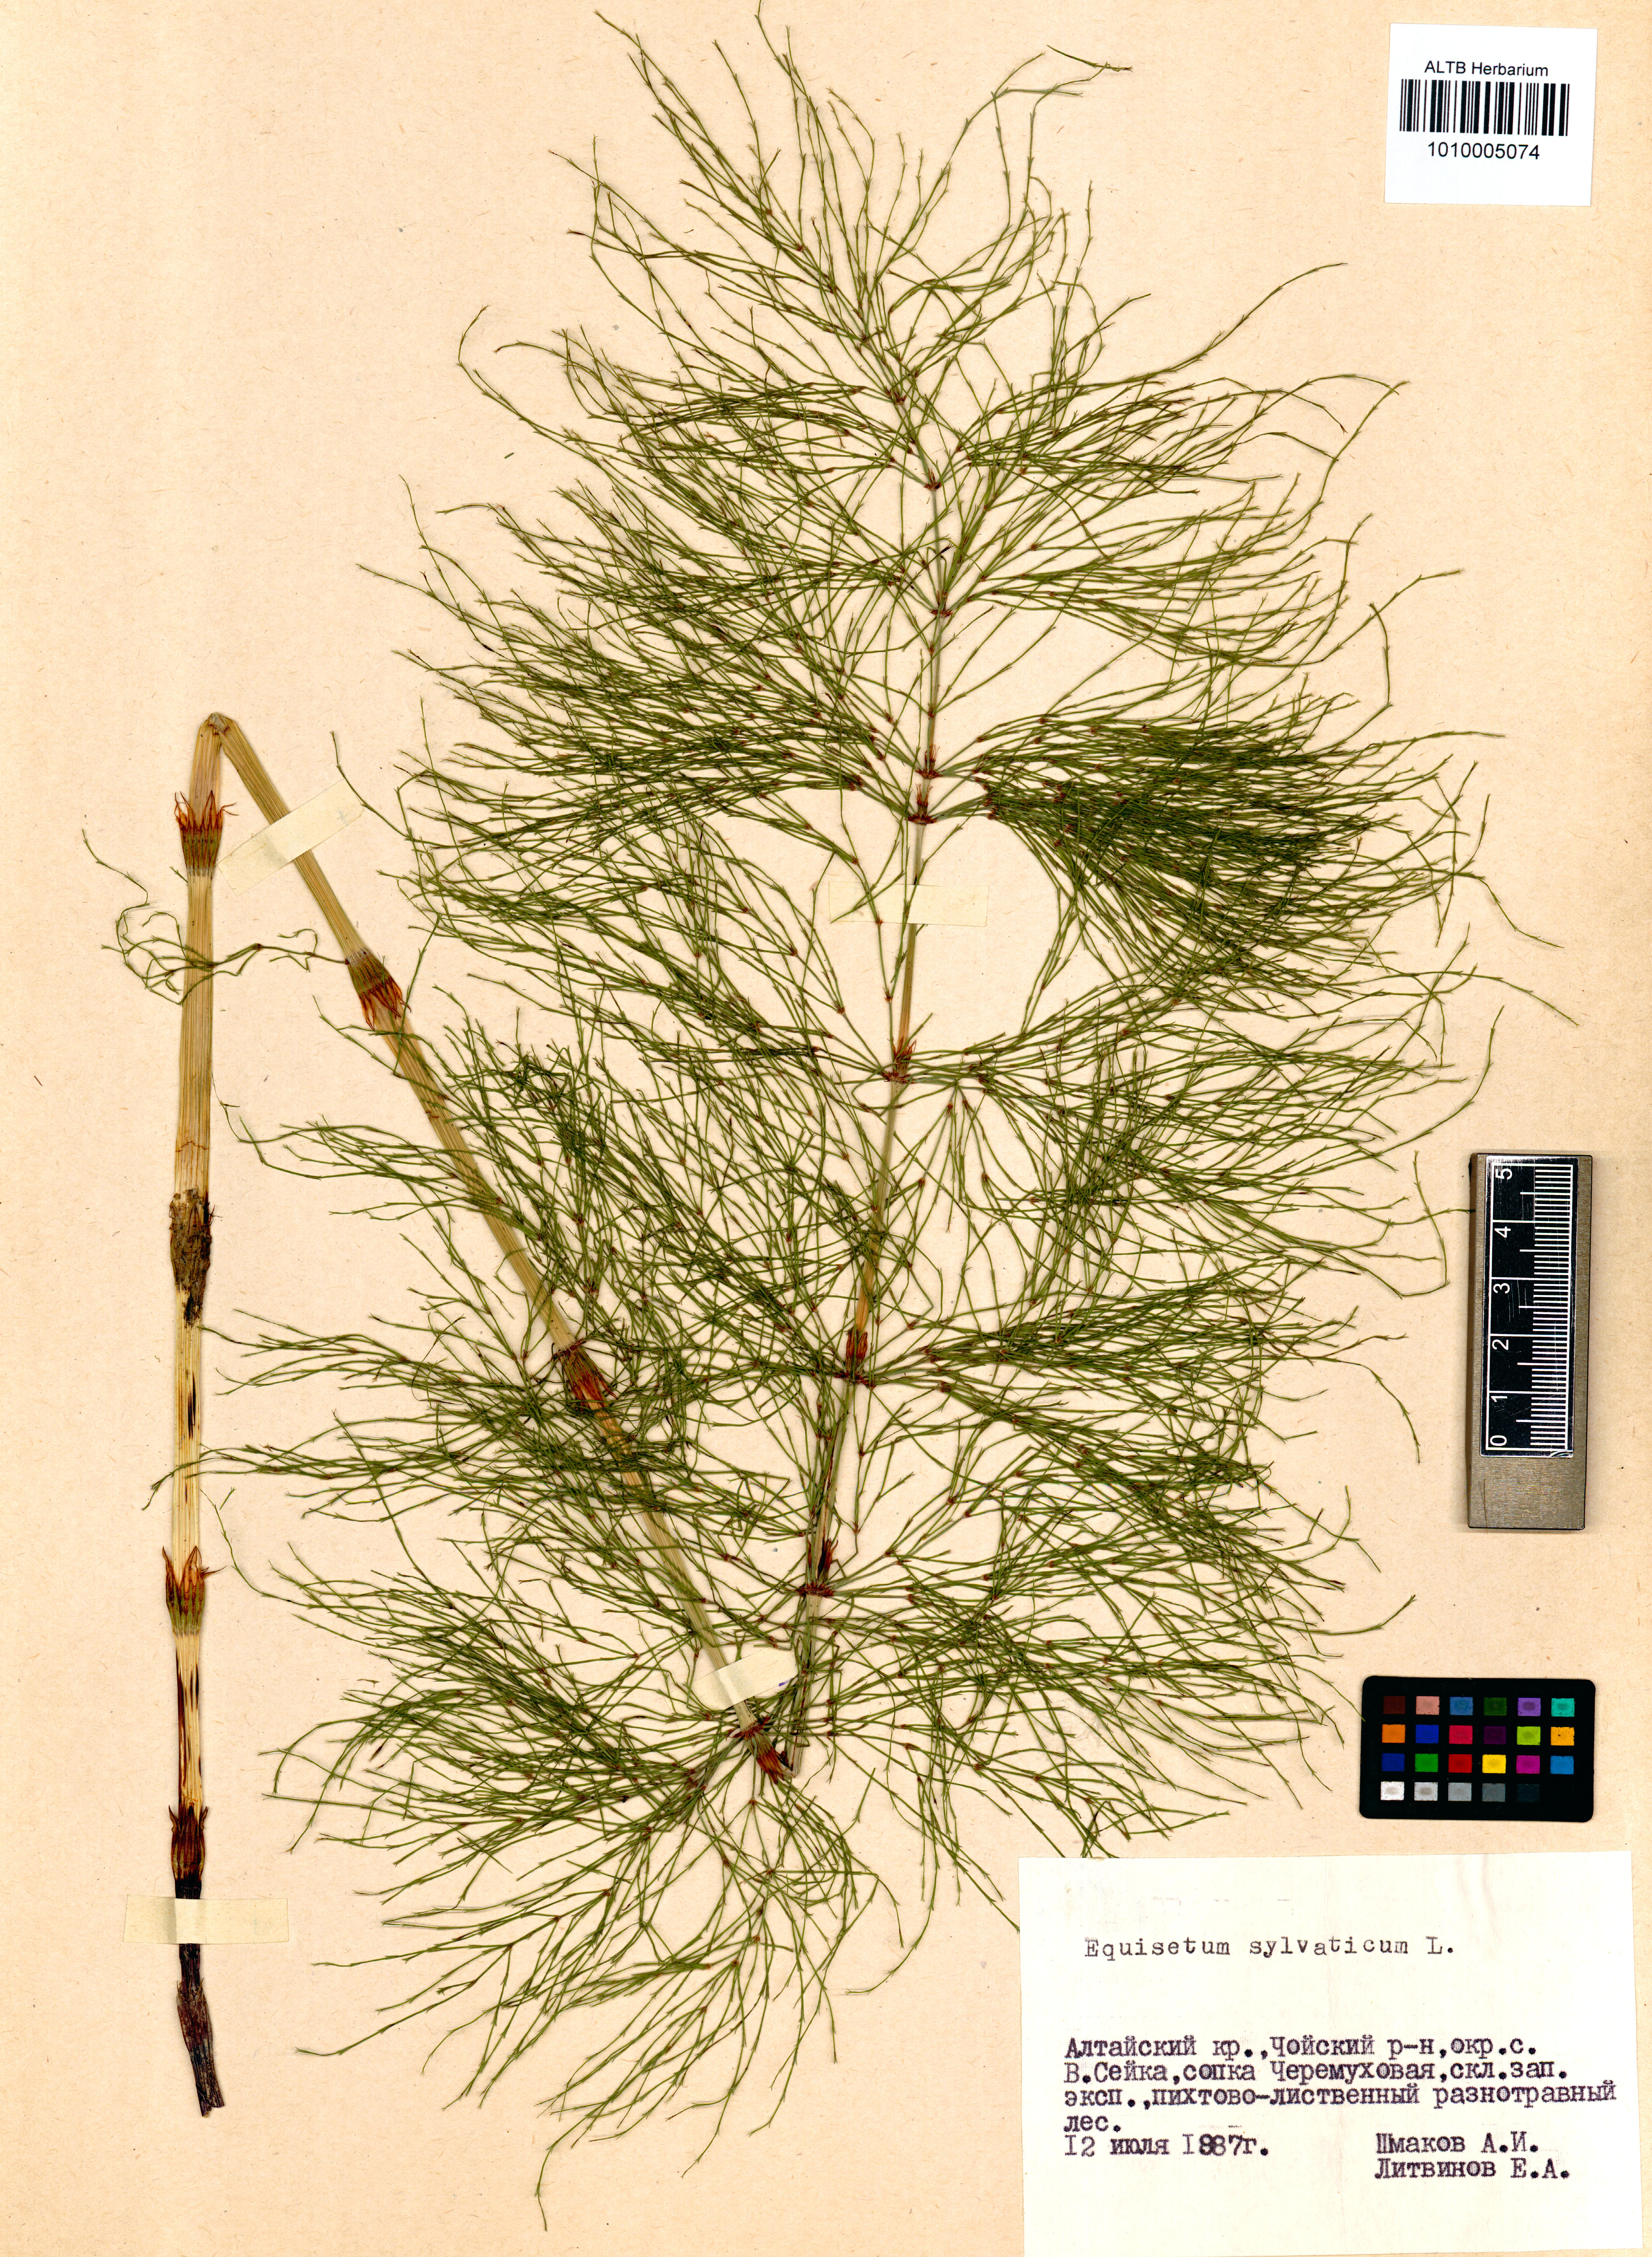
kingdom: Plantae
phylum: Tracheophyta
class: Polypodiopsida
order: Equisetales
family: Equisetaceae
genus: Equisetum
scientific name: Equisetum sylvaticum
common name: Wood horsetail
